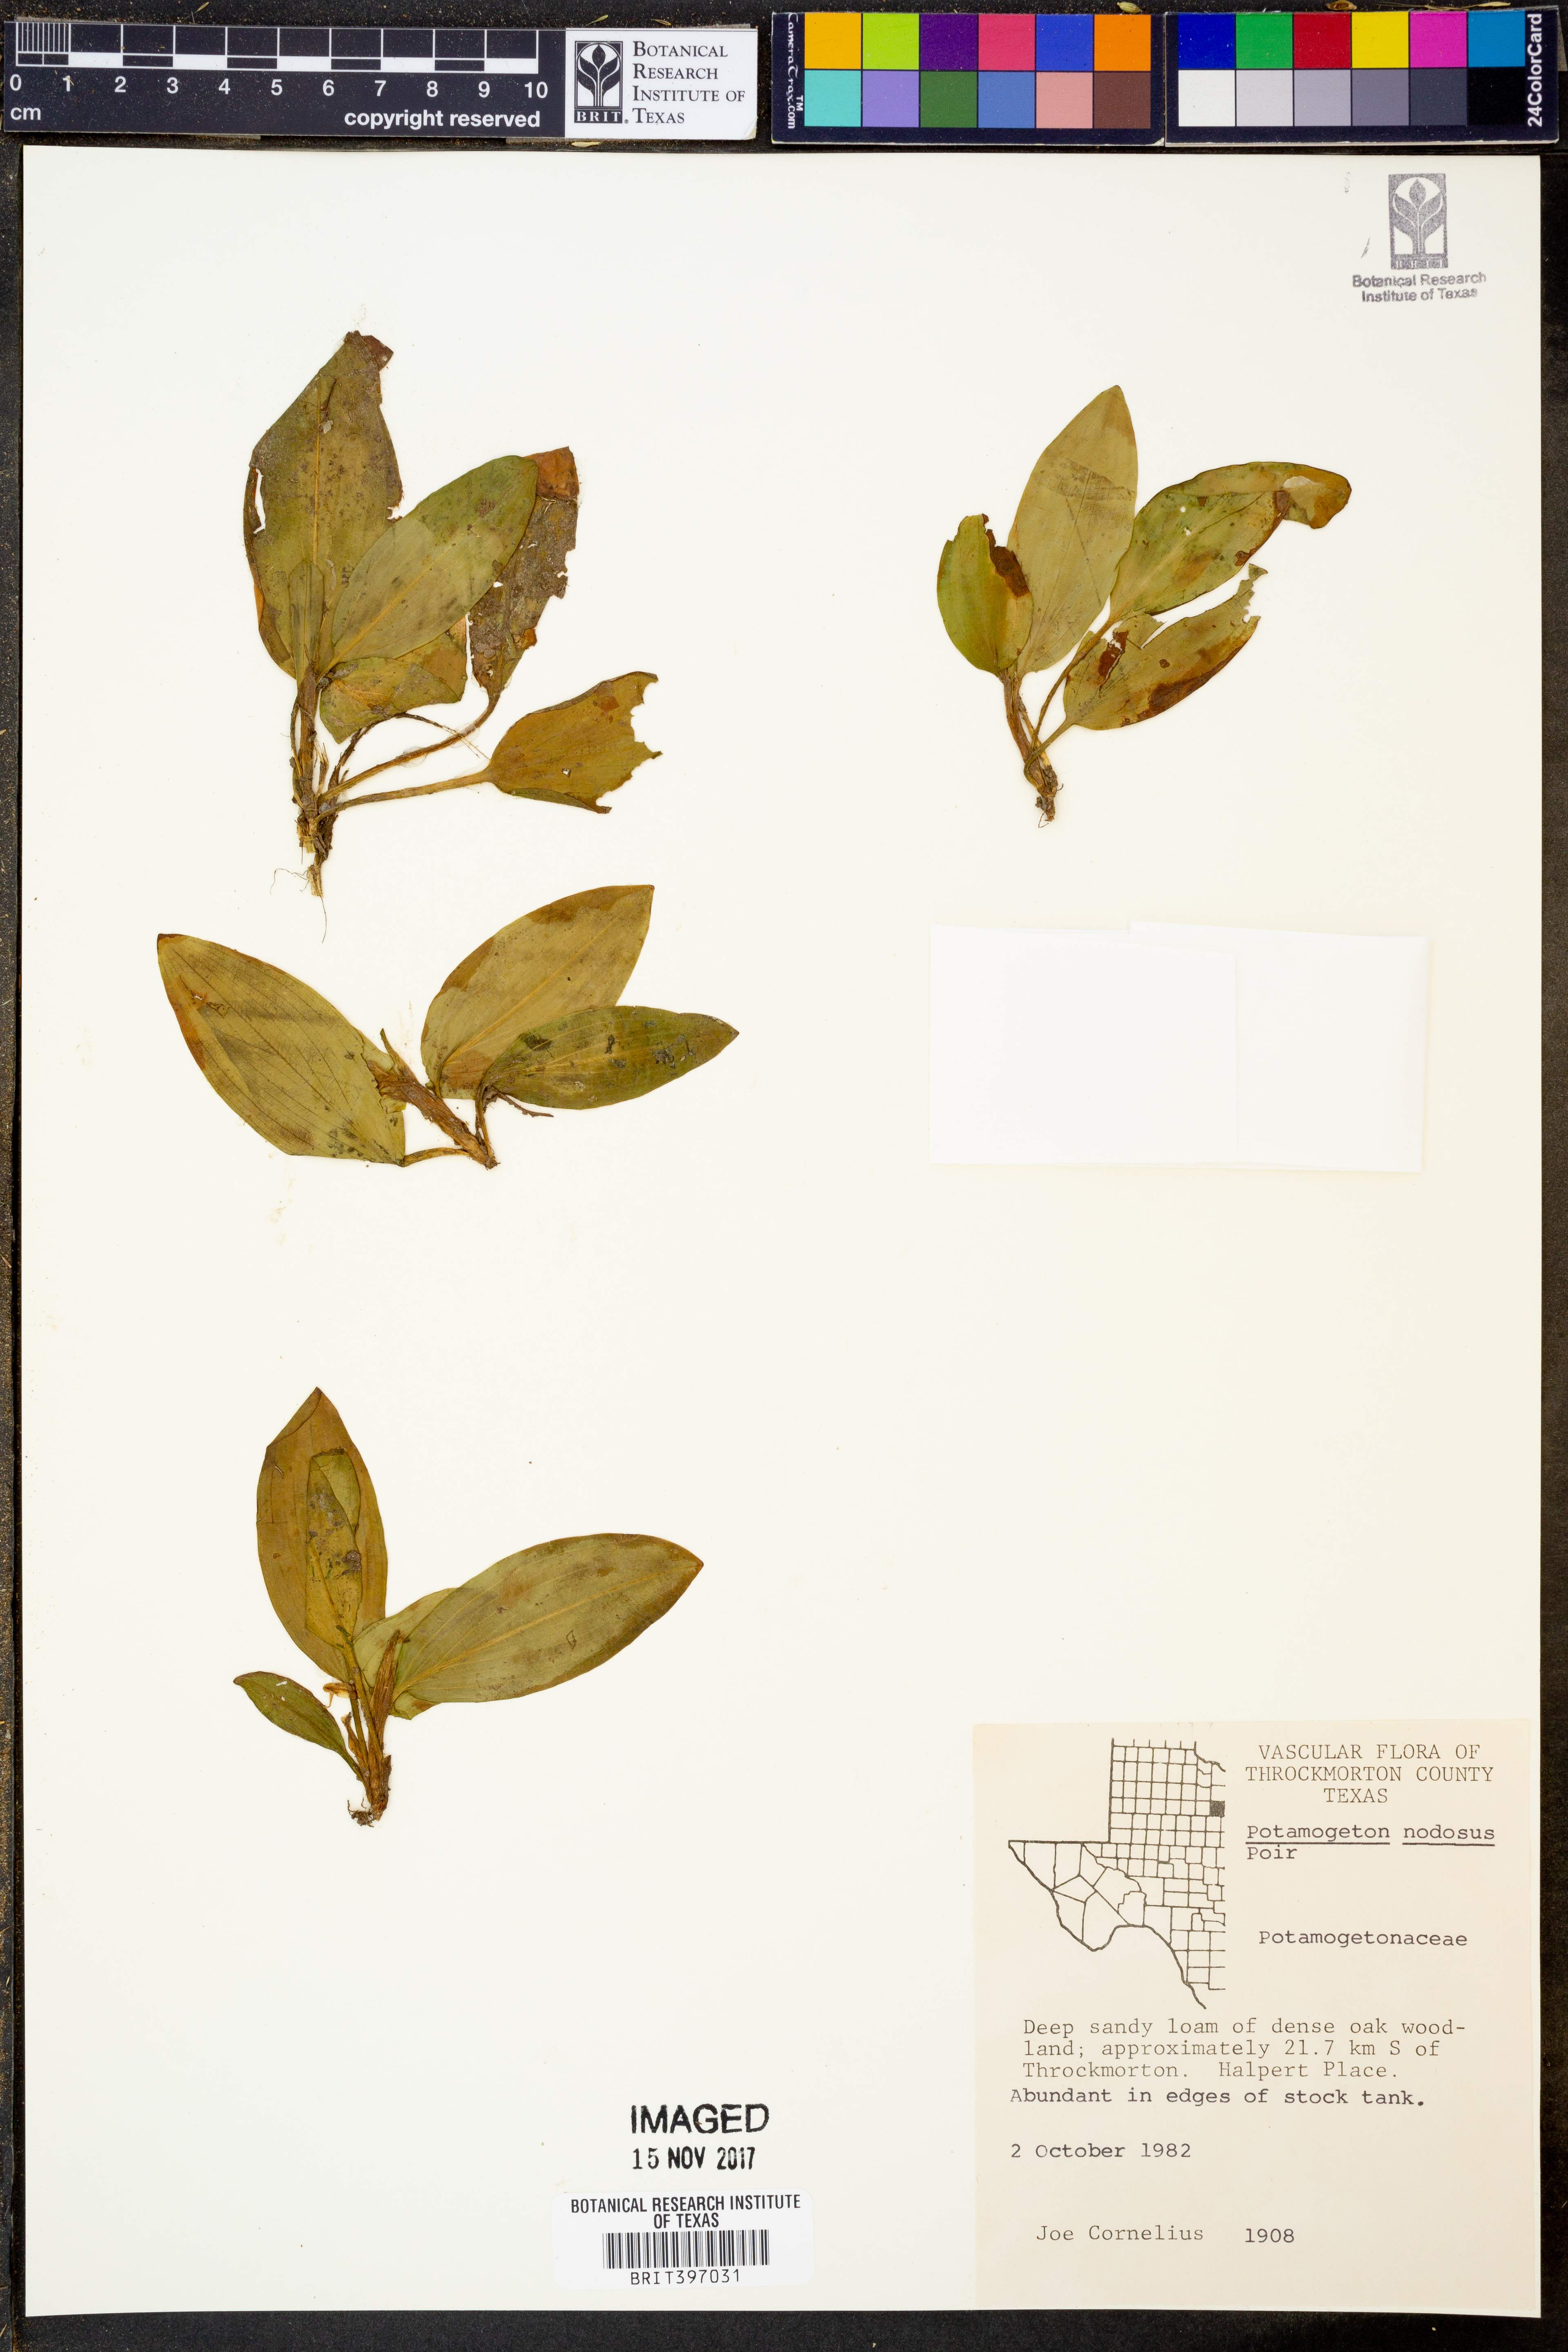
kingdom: Plantae
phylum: Tracheophyta
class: Liliopsida
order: Alismatales
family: Potamogetonaceae
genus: Potamogeton
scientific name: Potamogeton nodosus
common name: Loddon pondweed
